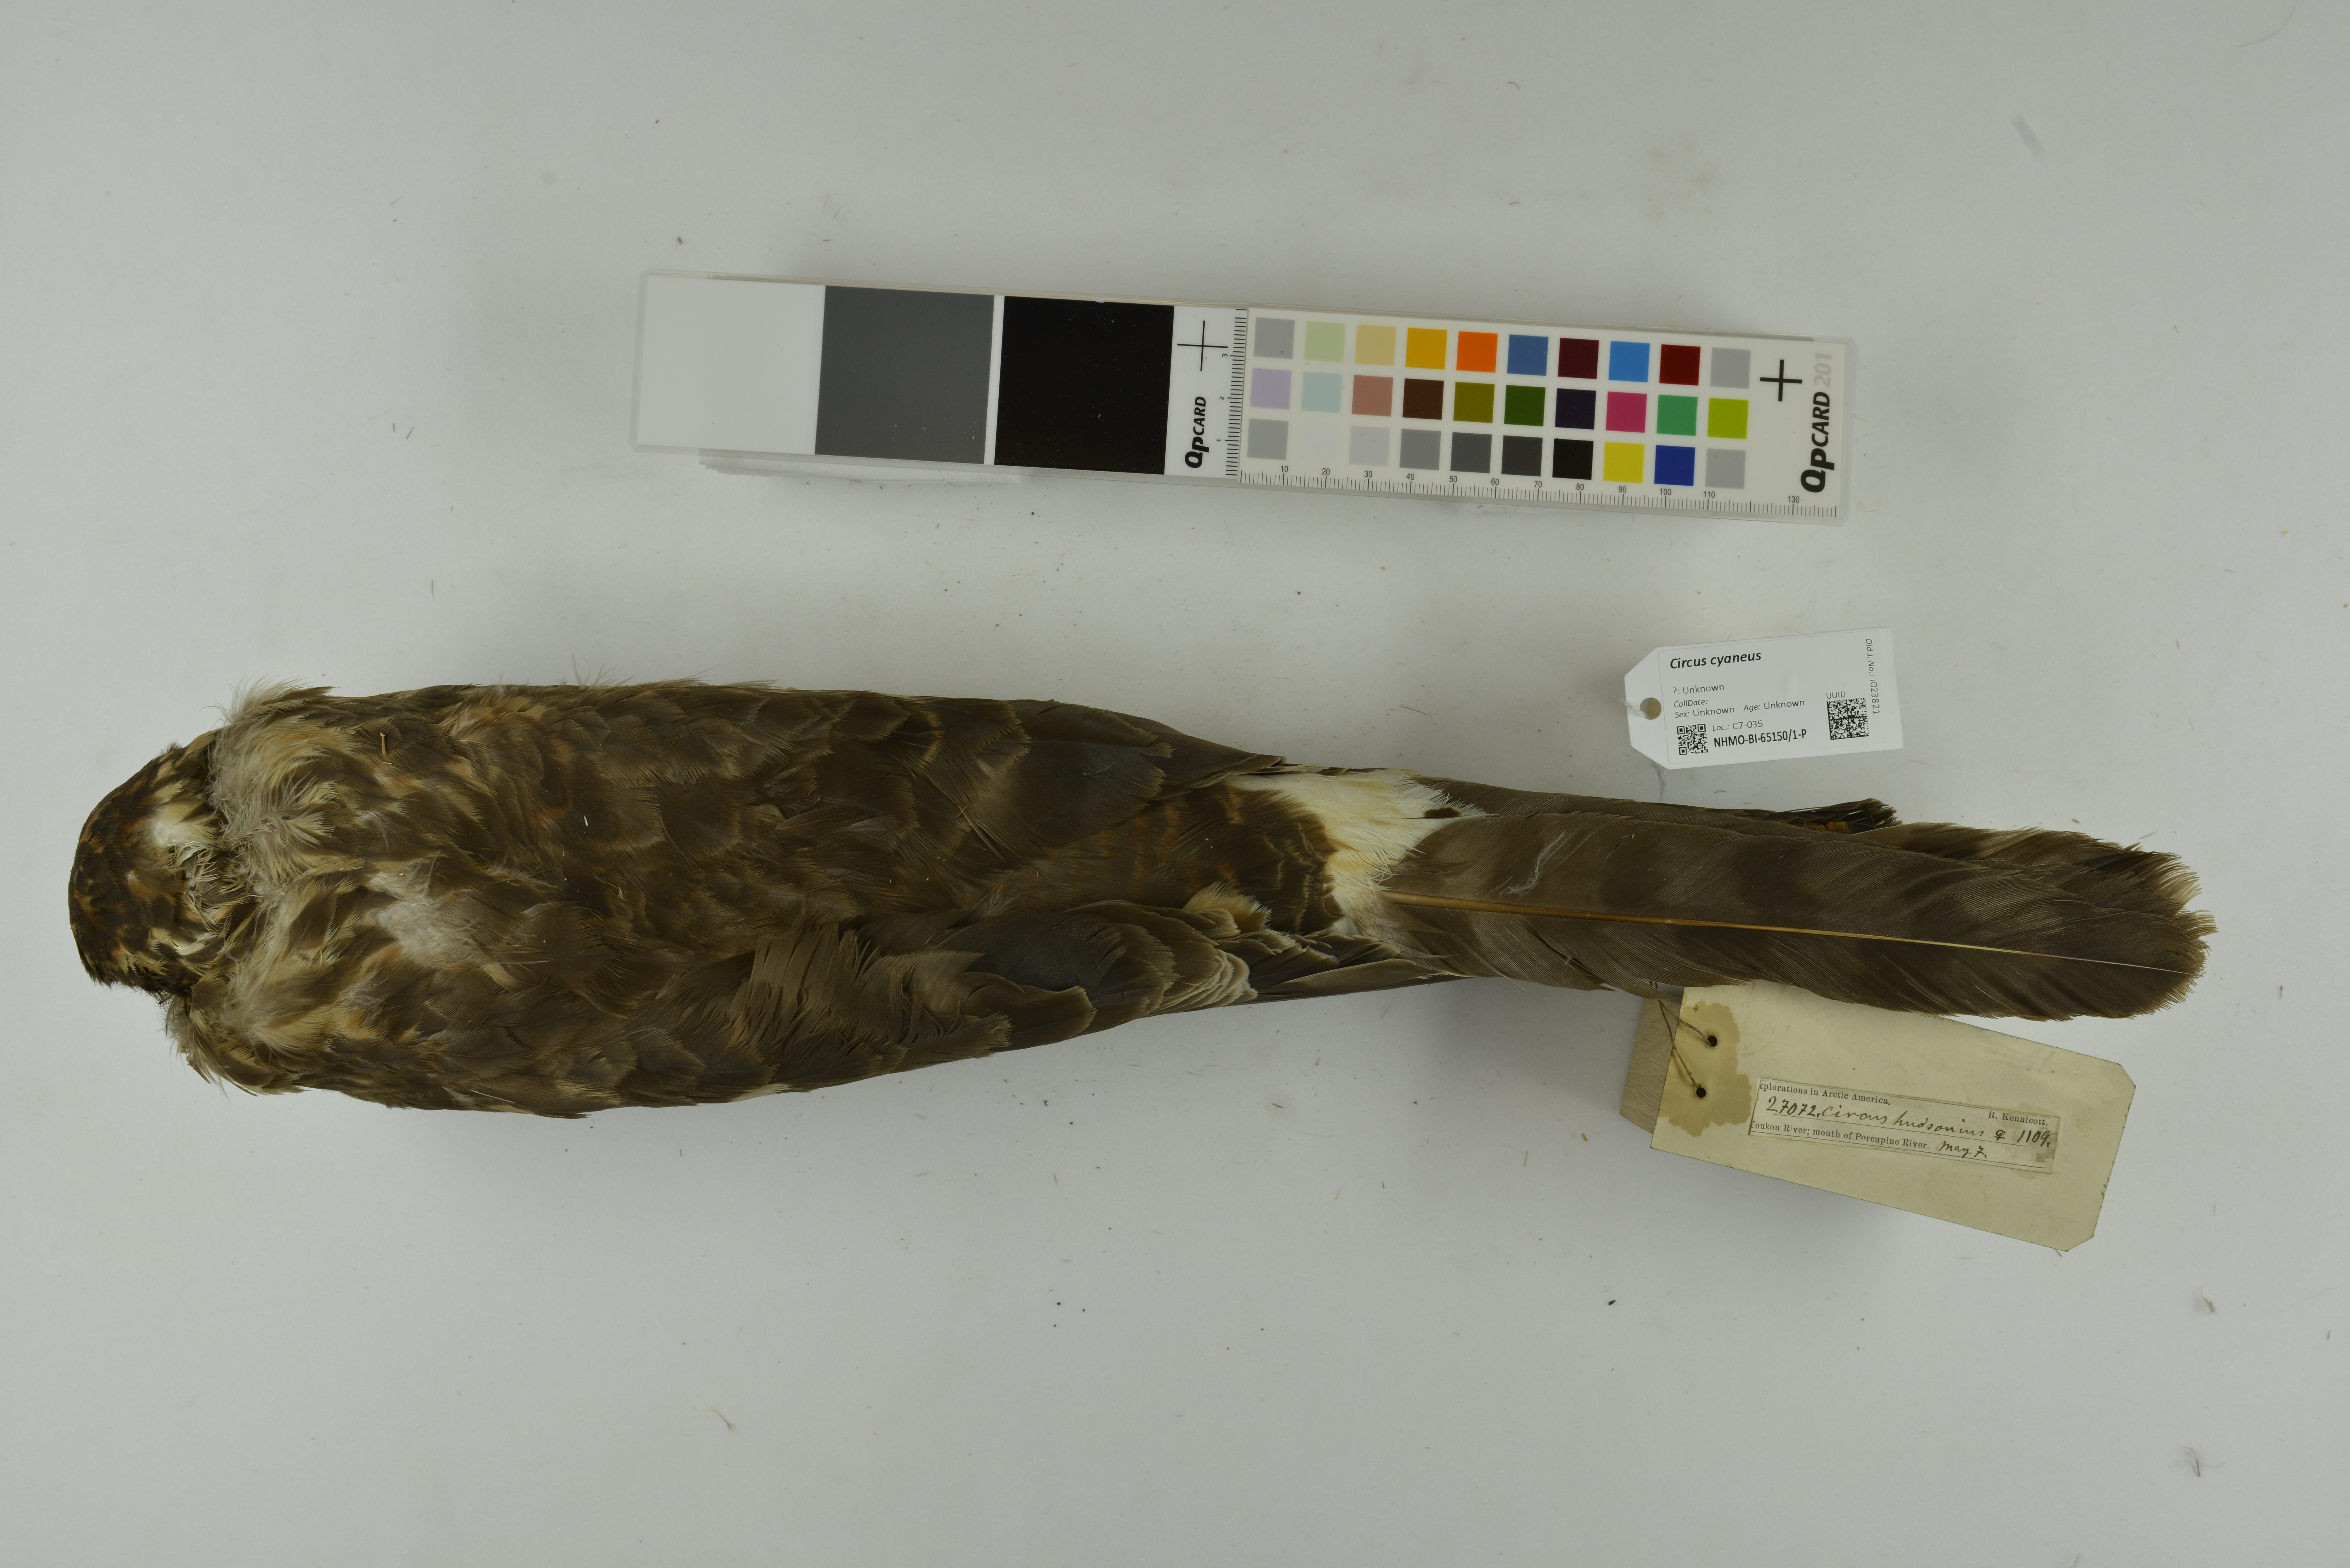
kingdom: Animalia
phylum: Chordata
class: Aves
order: Accipitriformes
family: Accipitridae
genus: Circus
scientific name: Circus cyaneus
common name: Hen harrier
